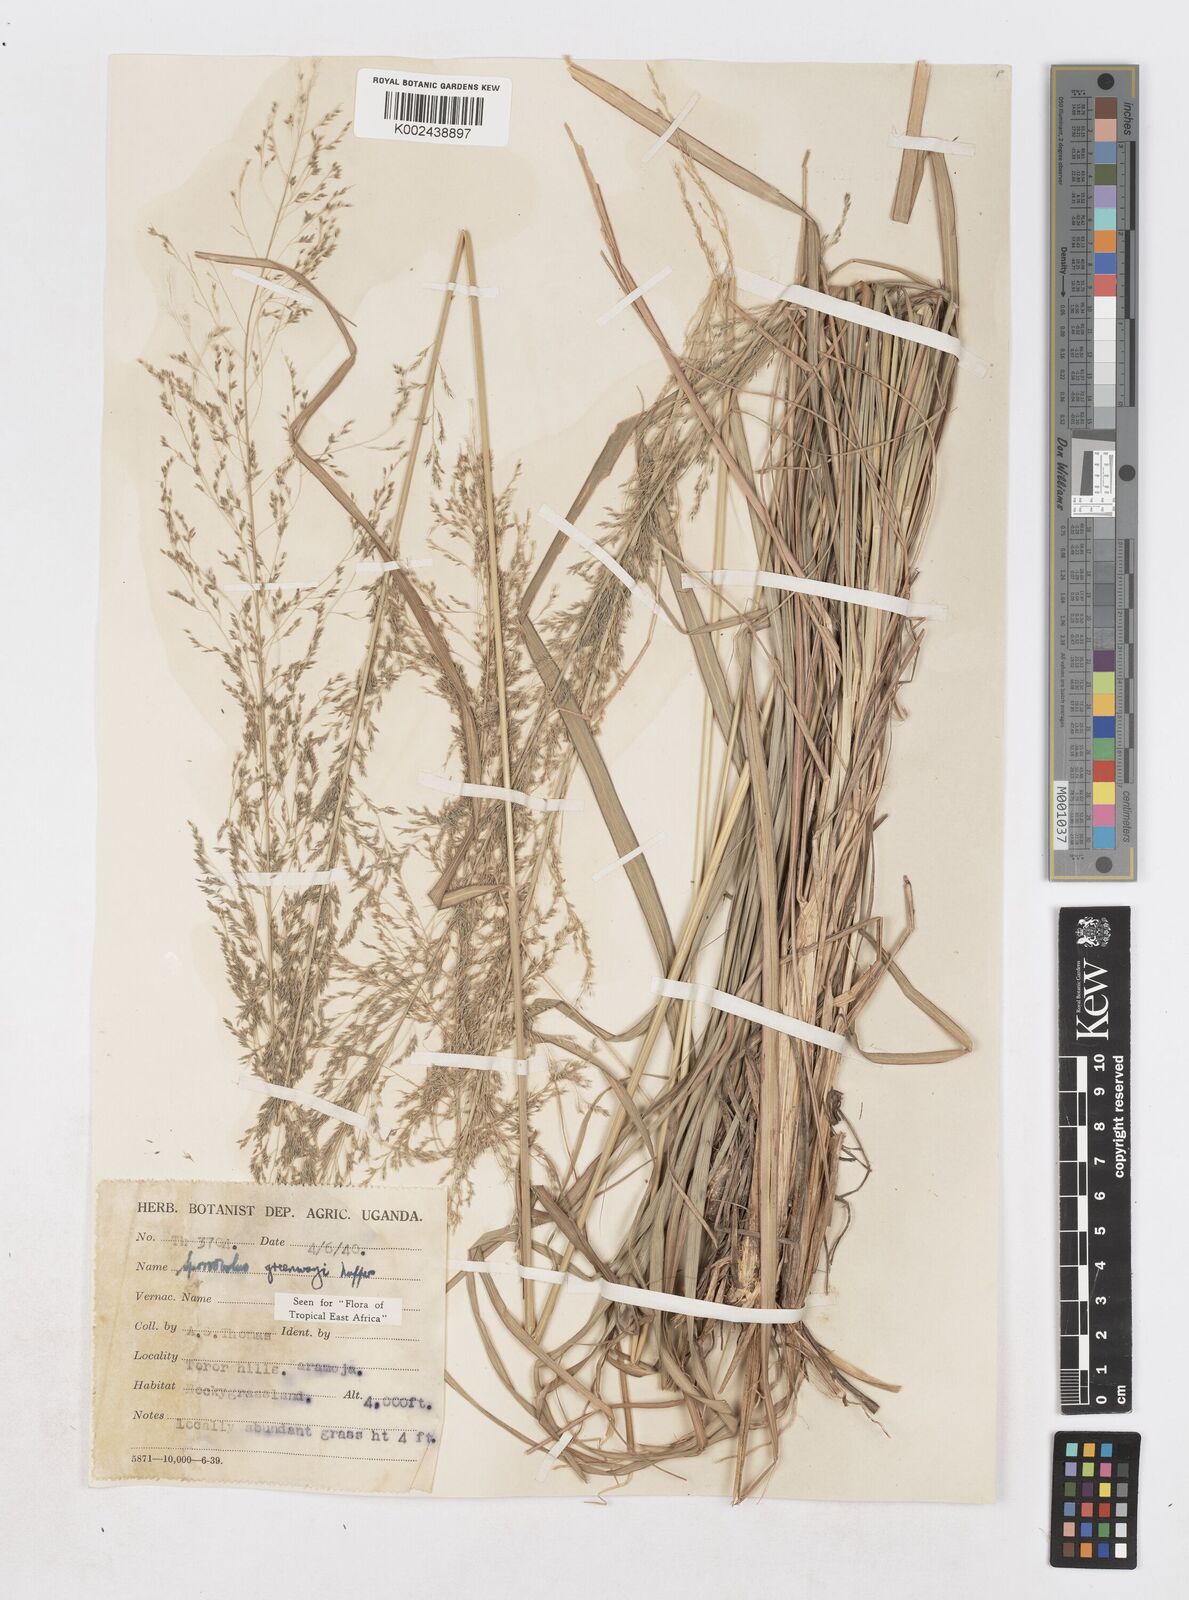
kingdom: Plantae
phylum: Tracheophyta
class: Liliopsida
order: Poales
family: Poaceae
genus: Sporobolus
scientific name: Sporobolus macranthelus
